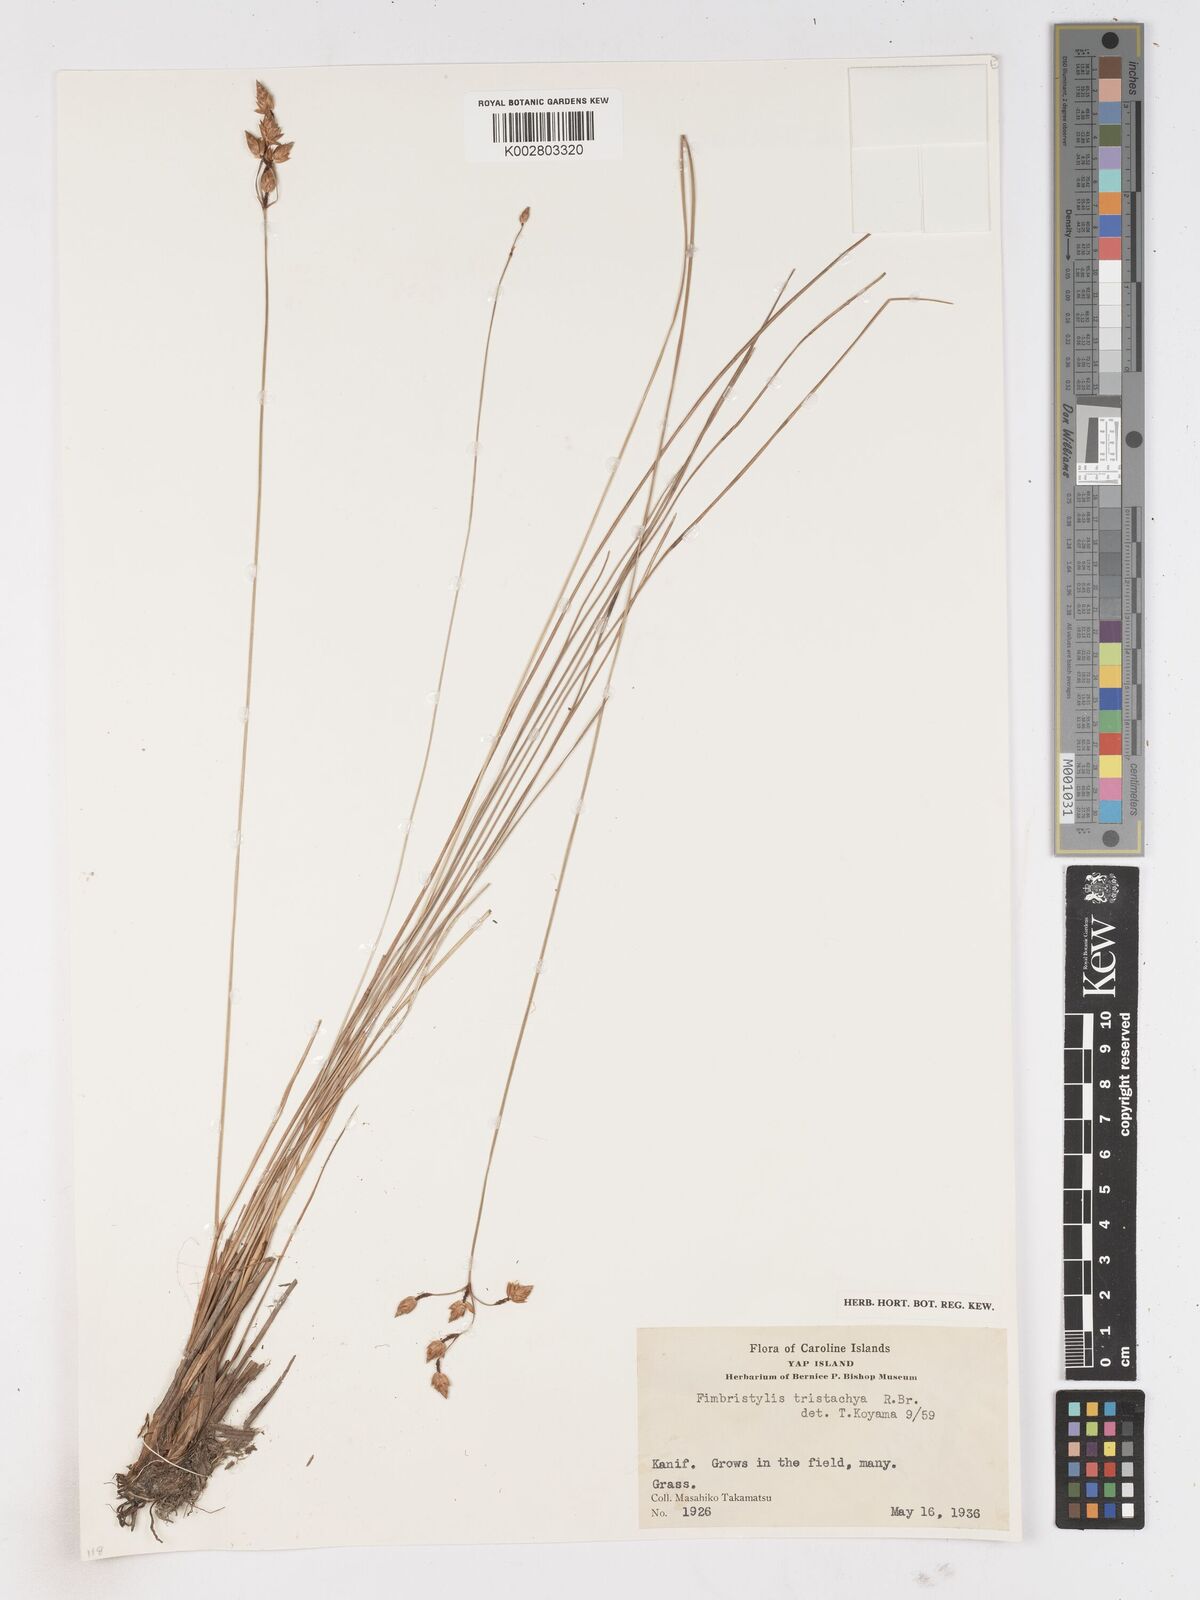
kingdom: Plantae
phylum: Tracheophyta
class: Liliopsida
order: Poales
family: Cyperaceae
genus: Fimbristylis
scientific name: Fimbristylis tristachya
